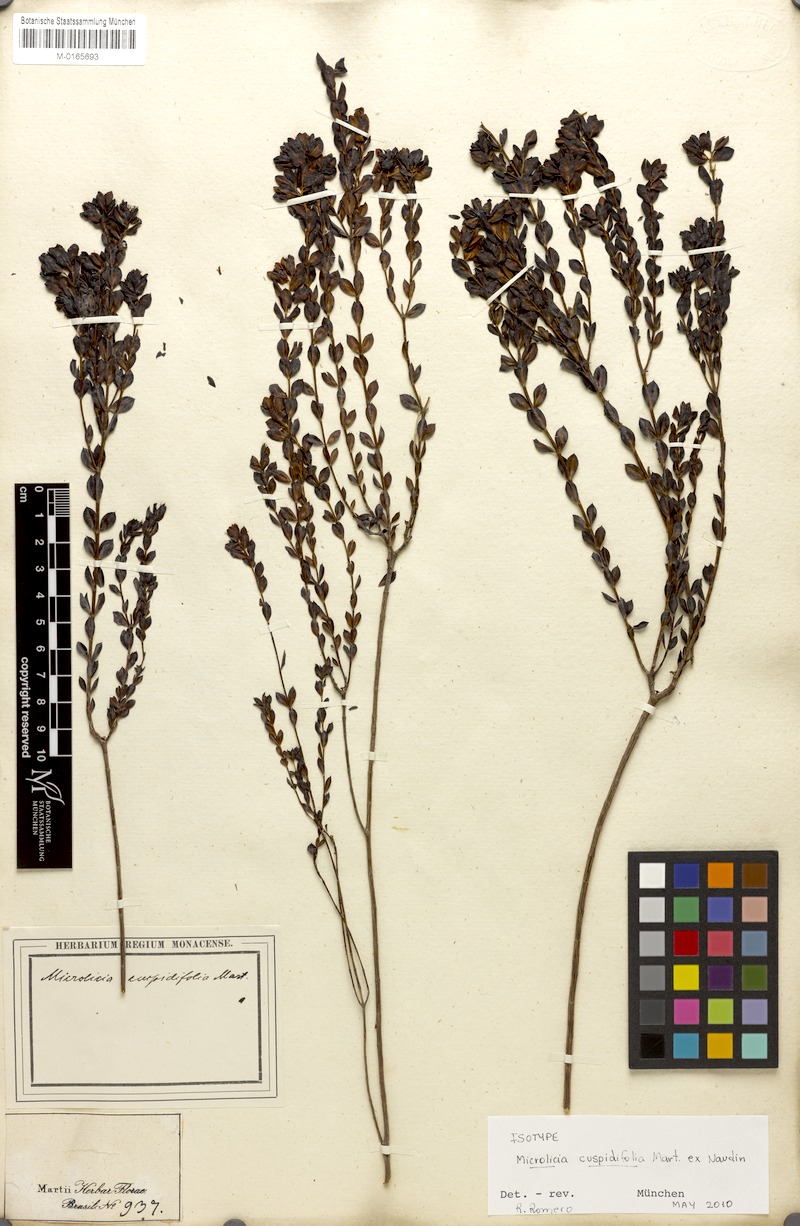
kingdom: Plantae
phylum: Tracheophyta
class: Magnoliopsida
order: Myrtales
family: Melastomataceae
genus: Microlicia
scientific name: Microlicia cuspidifolia
